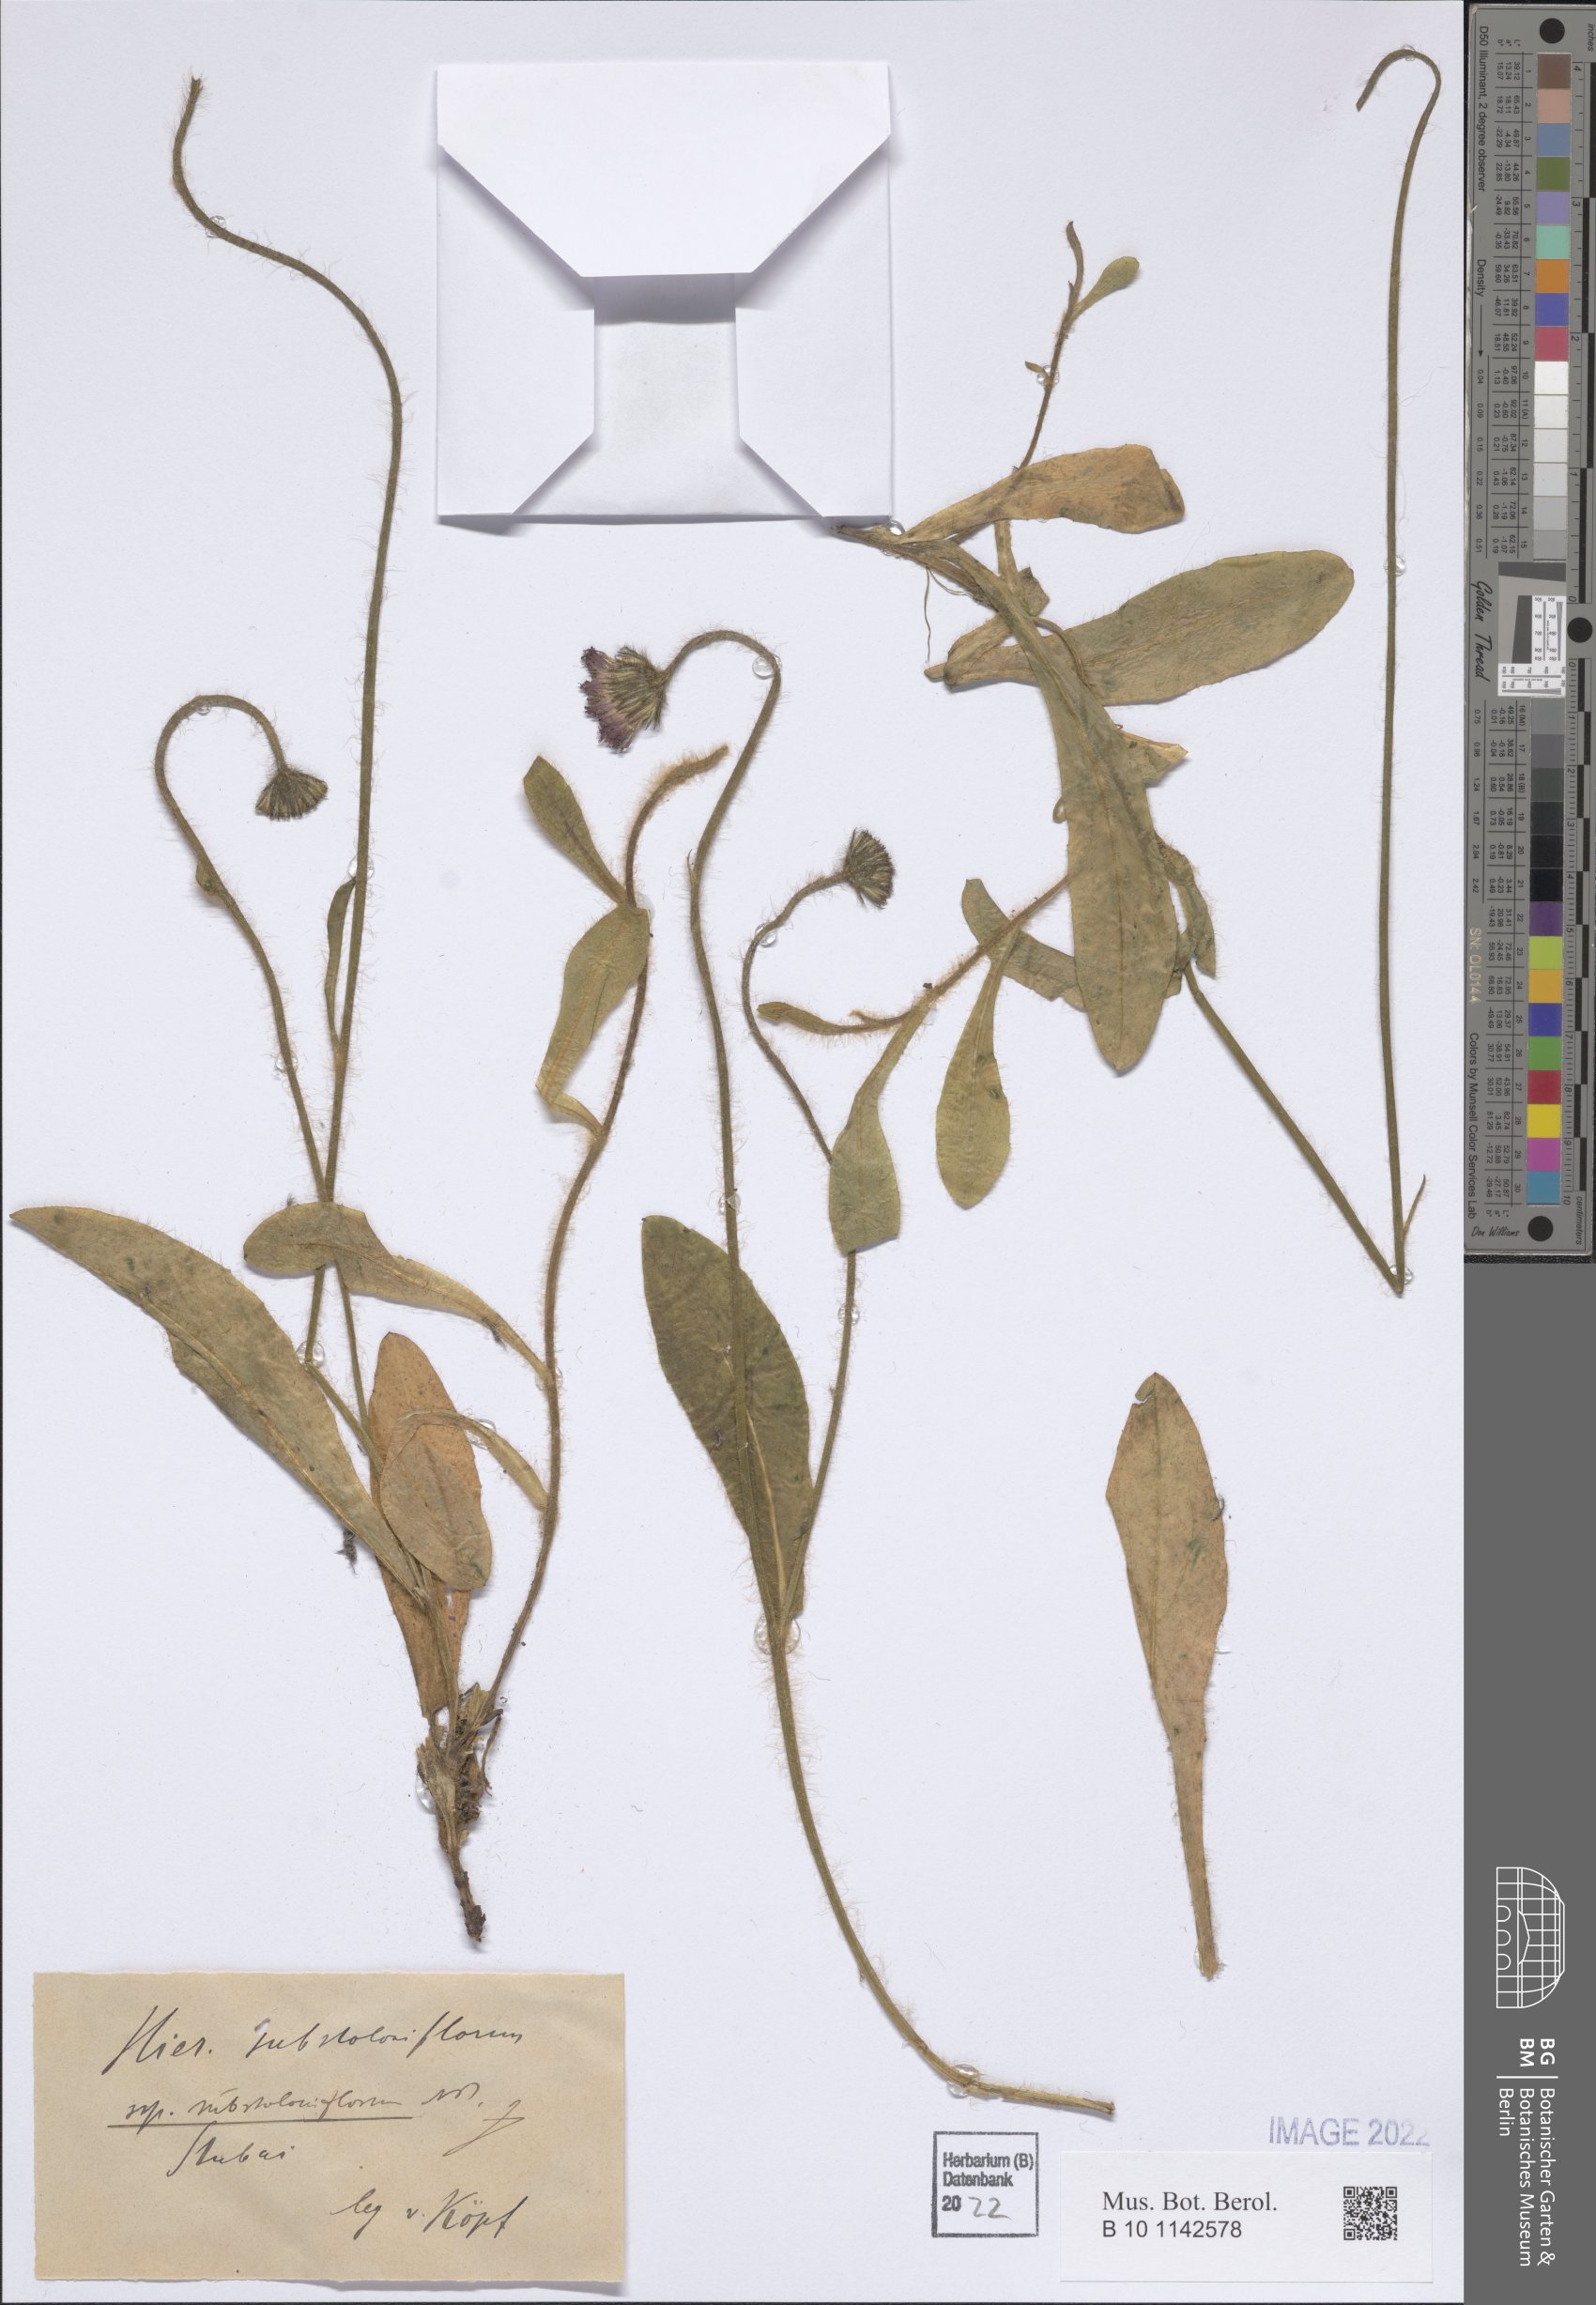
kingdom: Plantae
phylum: Tracheophyta
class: Magnoliopsida
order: Asterales
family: Asteraceae
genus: Pilosella
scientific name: Pilosella substoloniflora
